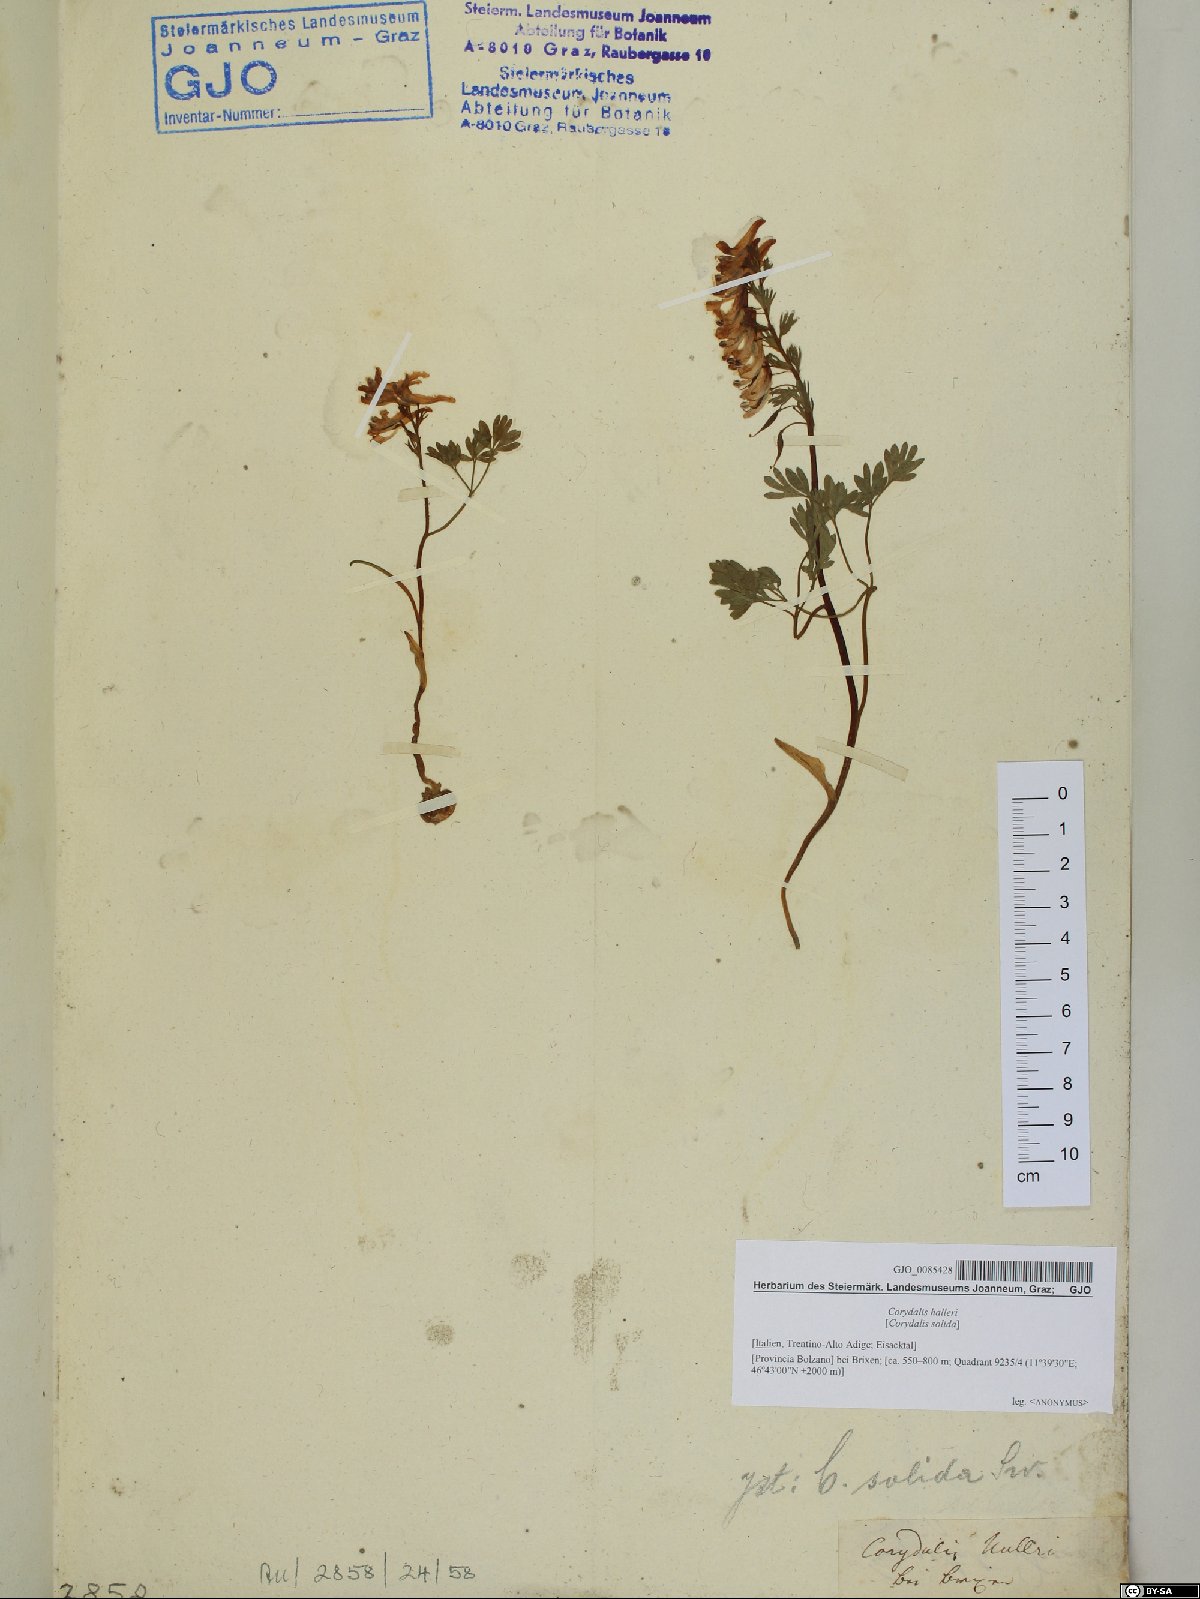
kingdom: Plantae
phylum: Tracheophyta
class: Magnoliopsida
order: Ranunculales
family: Papaveraceae
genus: Corydalis
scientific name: Corydalis solida
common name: Bird-in-a-bush
